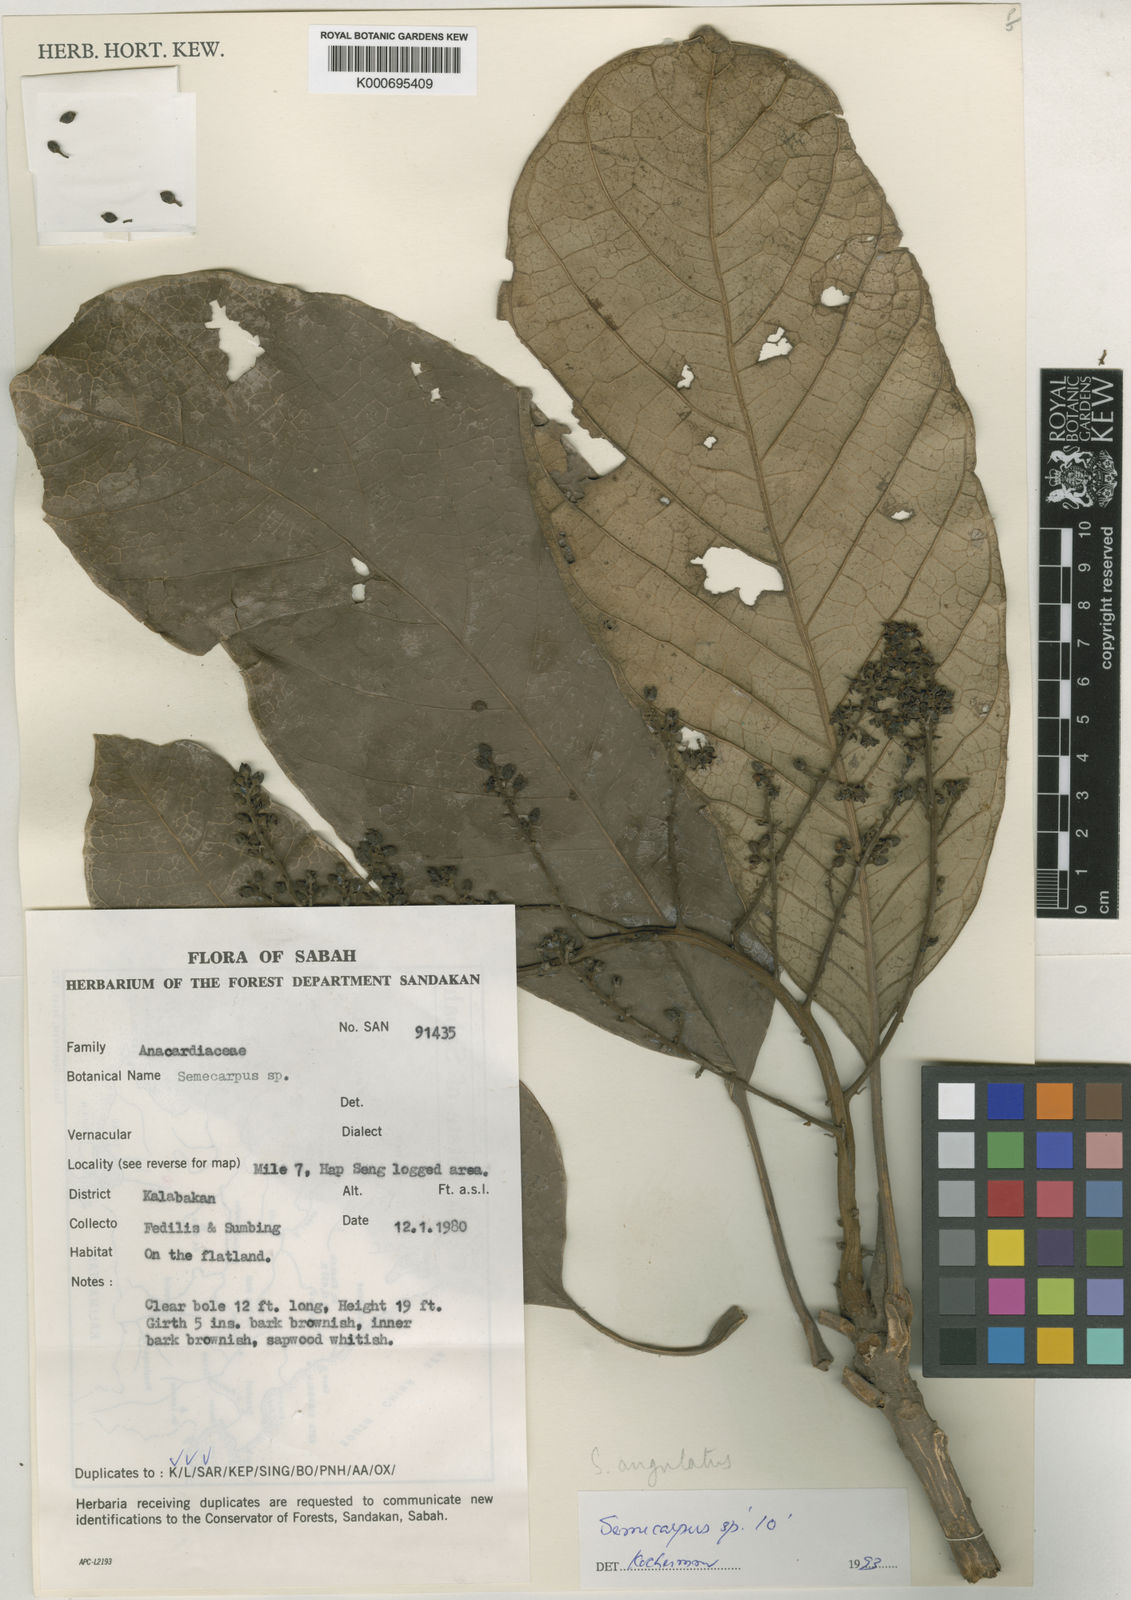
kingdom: Plantae
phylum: Tracheophyta
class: Magnoliopsida
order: Sapindales
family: Anacardiaceae
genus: Semecarpus
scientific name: Semecarpus angulatus
